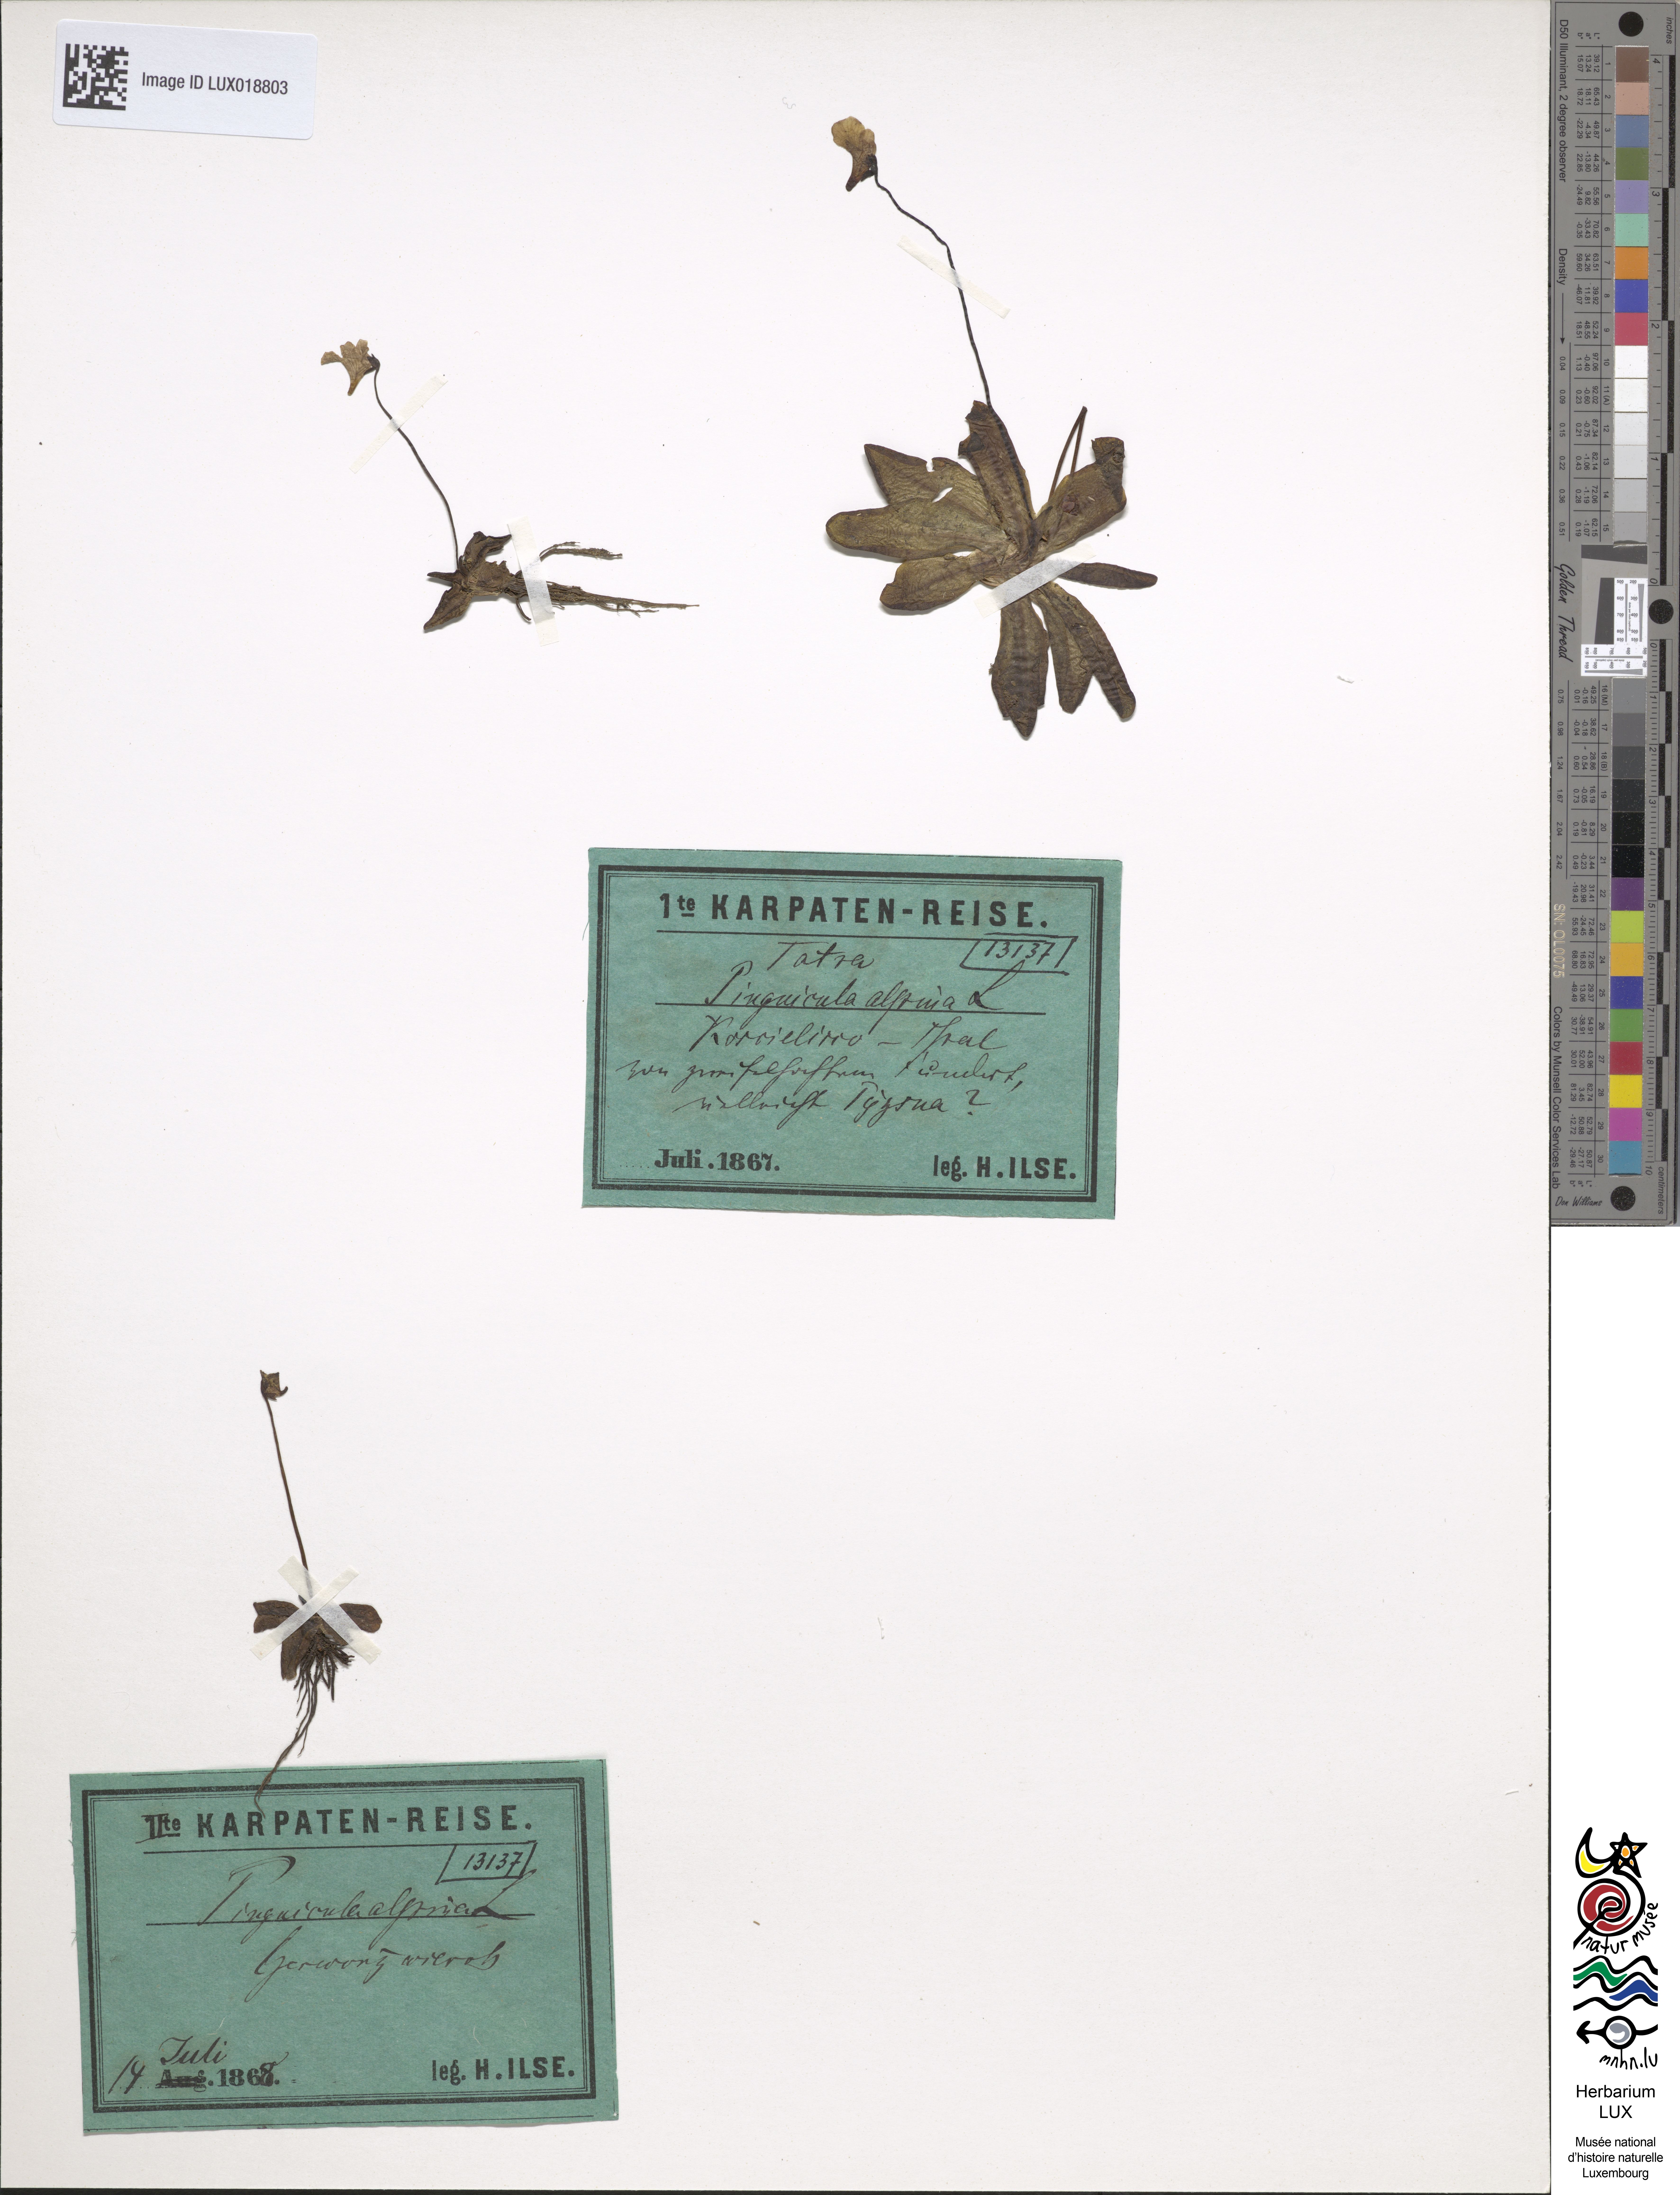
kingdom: Plantae
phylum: Tracheophyta
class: Magnoliopsida
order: Lamiales
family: Lentibulariaceae
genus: Pinguicula
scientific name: Pinguicula alpina
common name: Alpine butterwort
